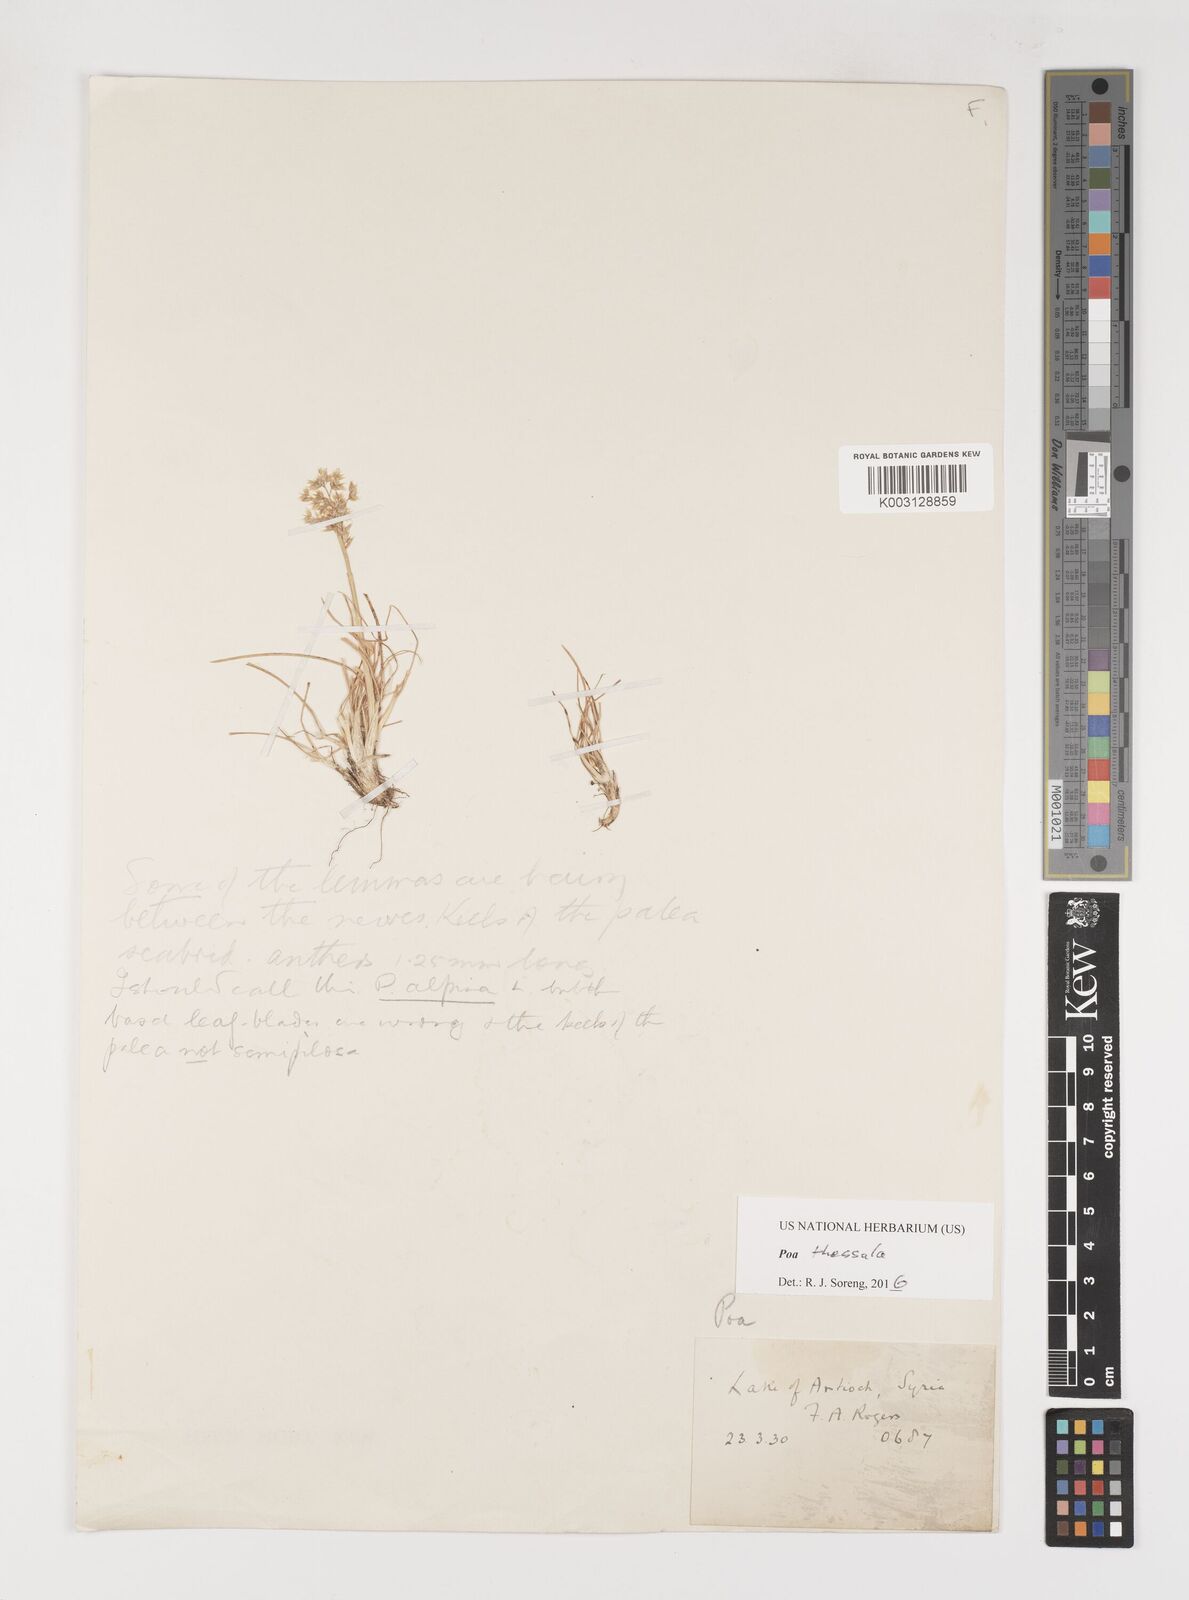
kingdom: Plantae
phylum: Tracheophyta
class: Liliopsida
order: Poales
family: Poaceae
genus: Poa
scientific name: Poa thessala
